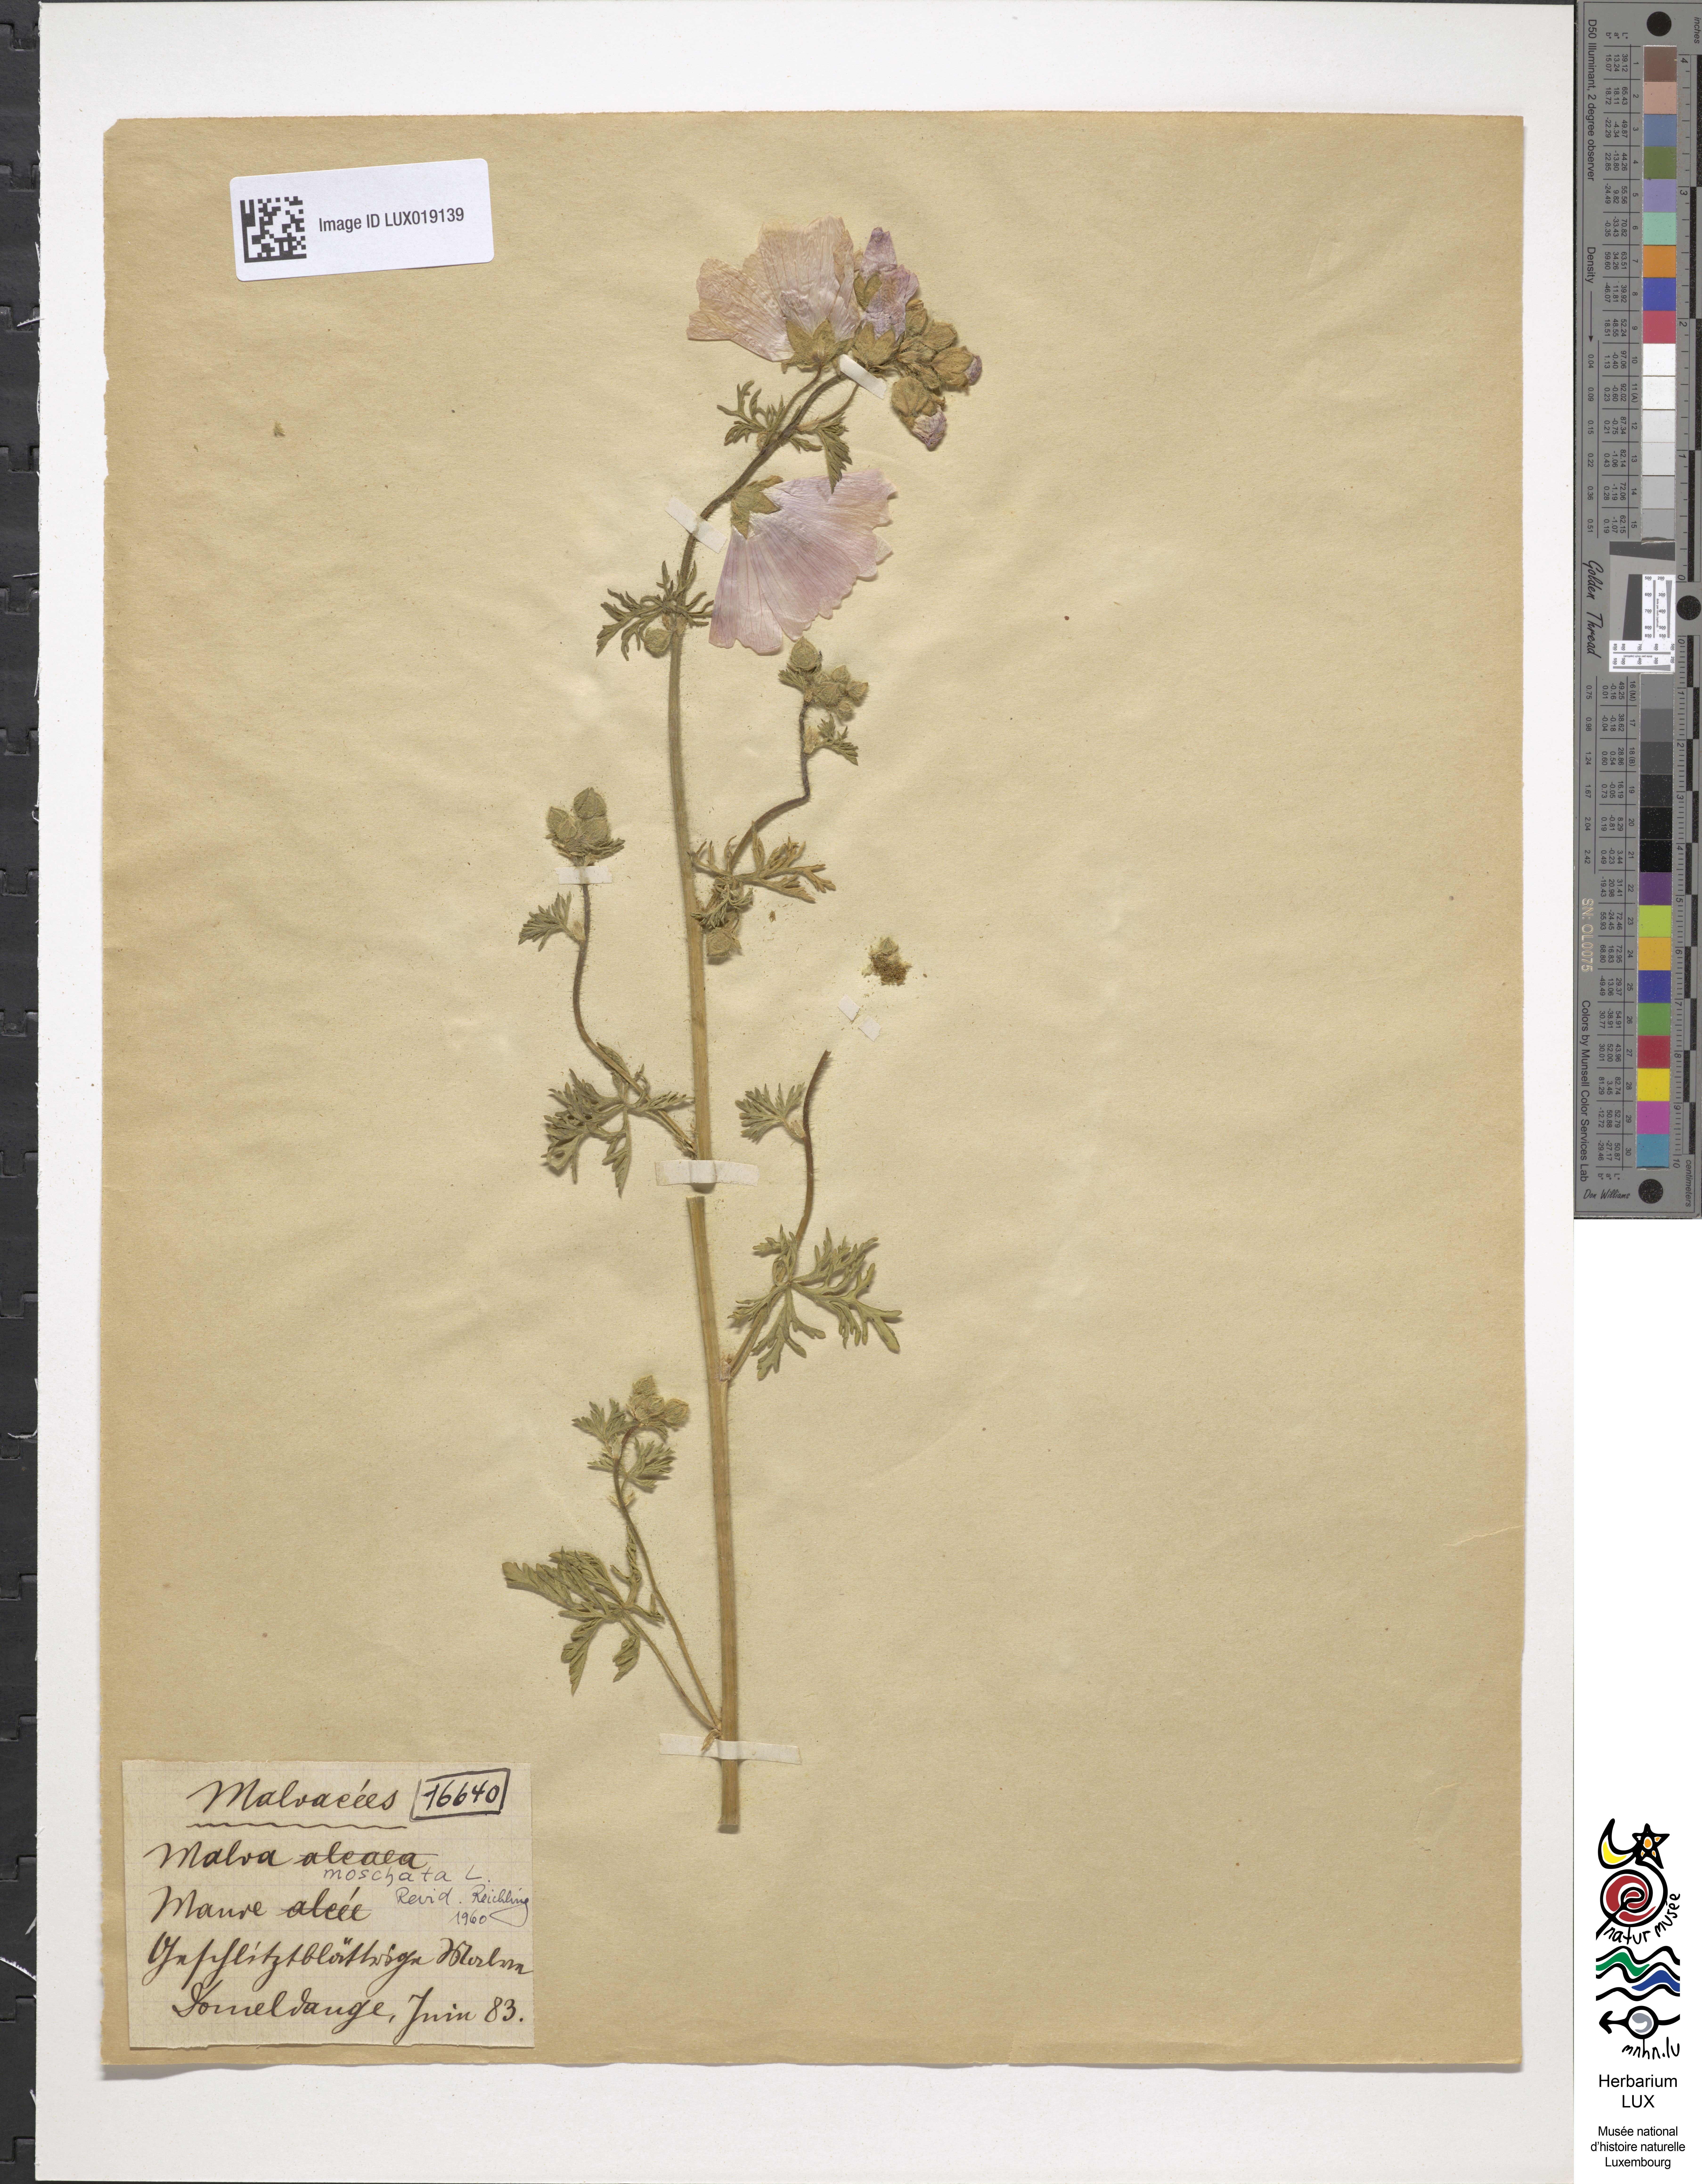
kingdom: Plantae
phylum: Tracheophyta
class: Magnoliopsida
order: Malvales
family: Malvaceae
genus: Malva
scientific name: Malva alcea
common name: Greater musk-mallow
